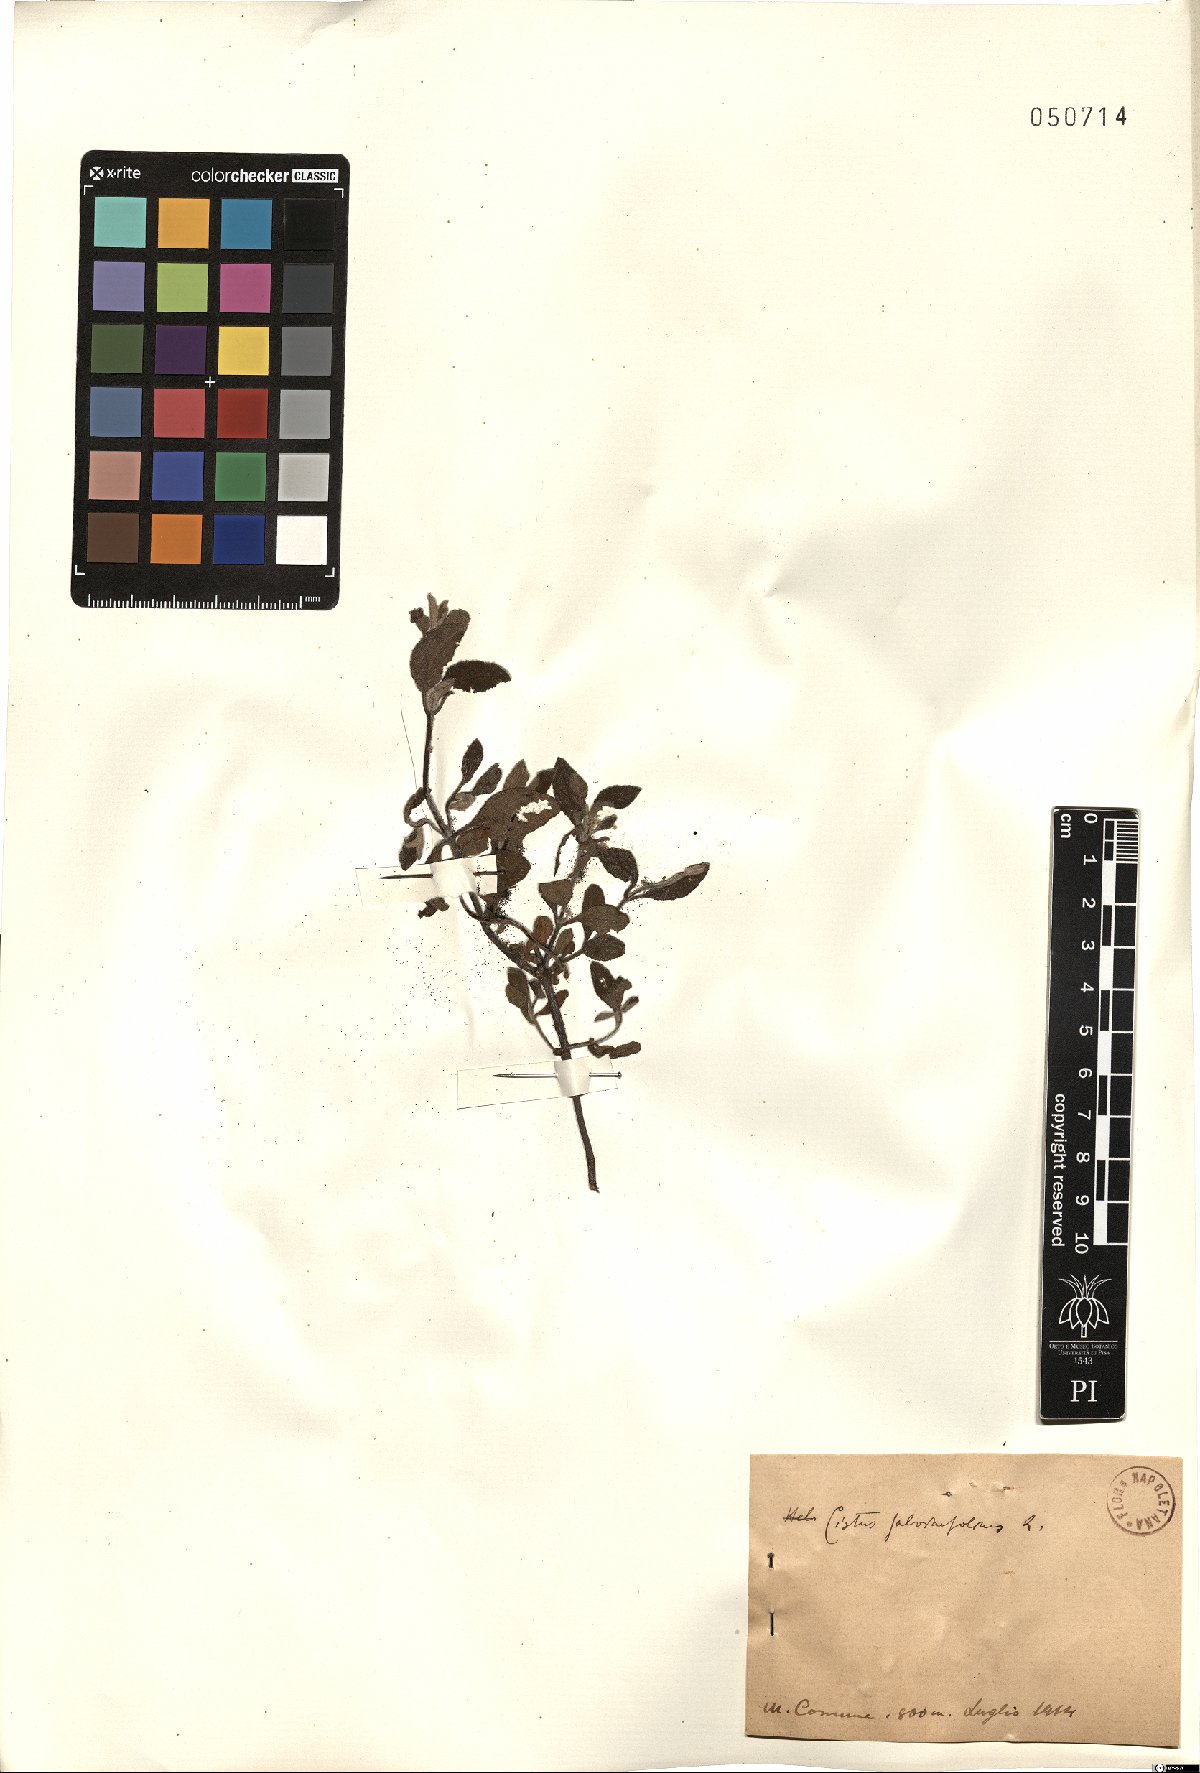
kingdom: Plantae
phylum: Tracheophyta
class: Magnoliopsida
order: Malvales
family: Cistaceae
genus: Cistus
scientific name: Cistus salviifolius
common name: Salvia cistus
